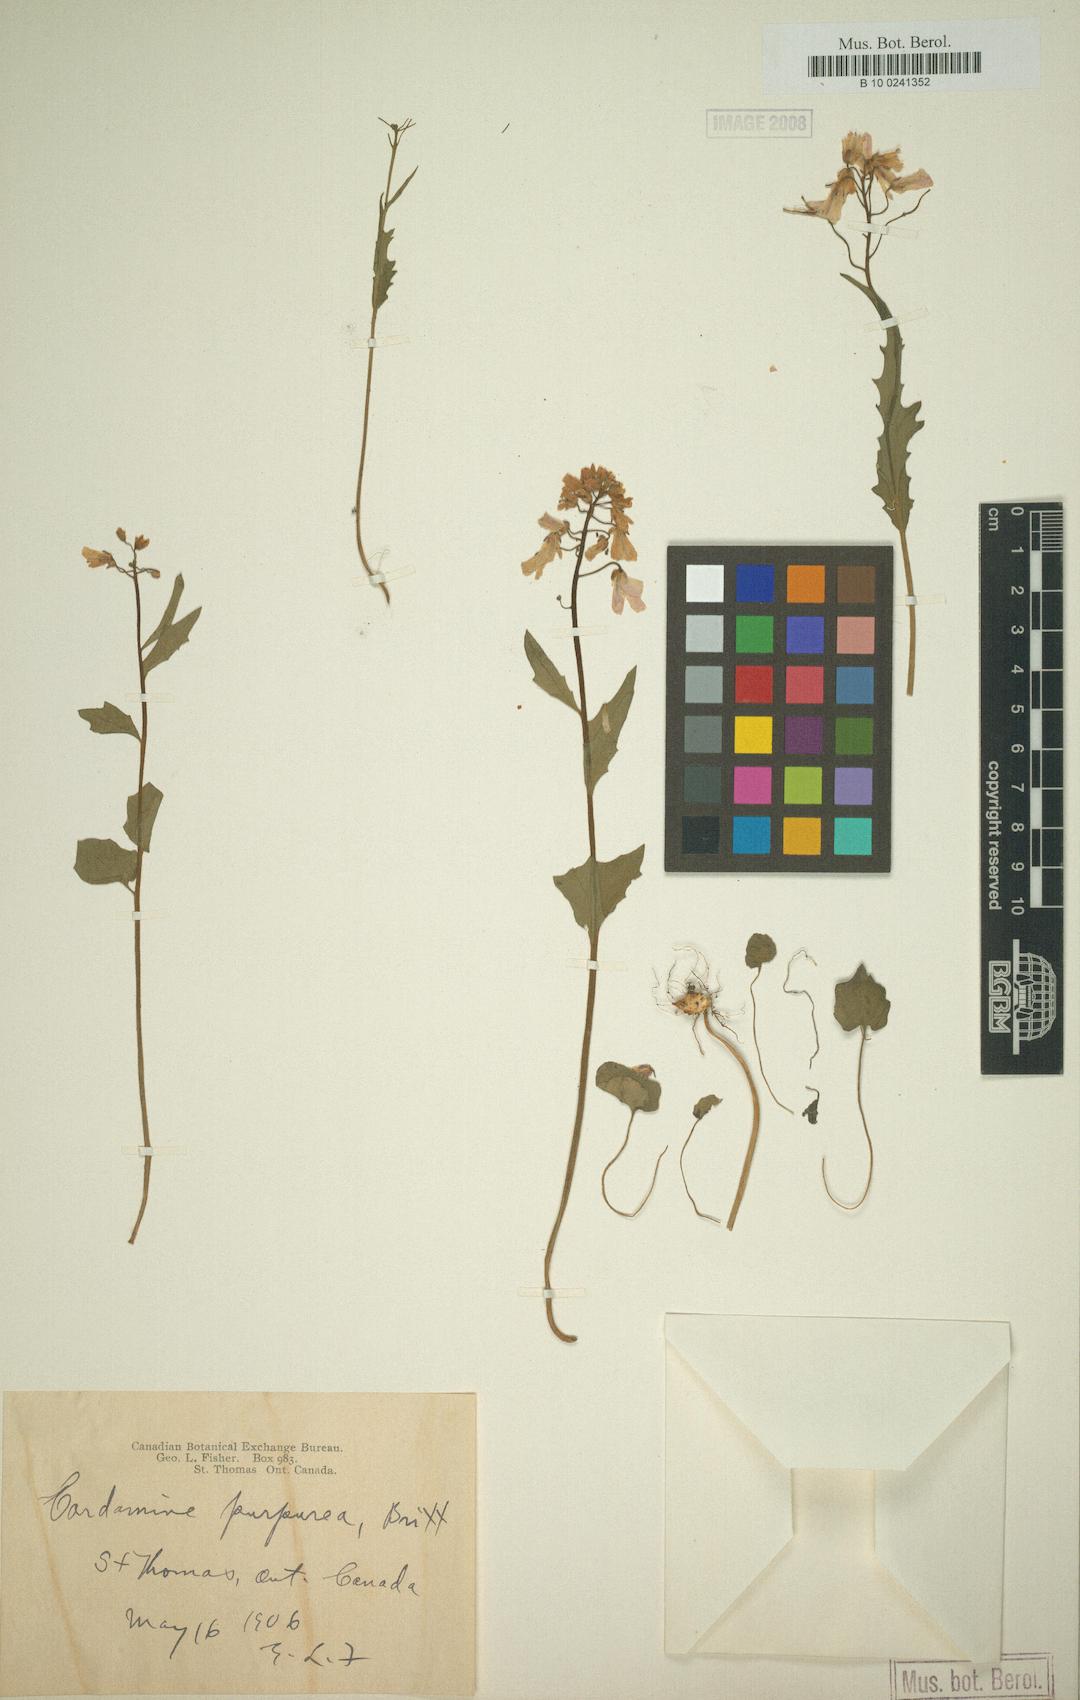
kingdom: Plantae
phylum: Tracheophyta
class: Magnoliopsida
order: Brassicales
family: Brassicaceae
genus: Cardamine
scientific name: Cardamine bulbosa
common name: Spring cress
